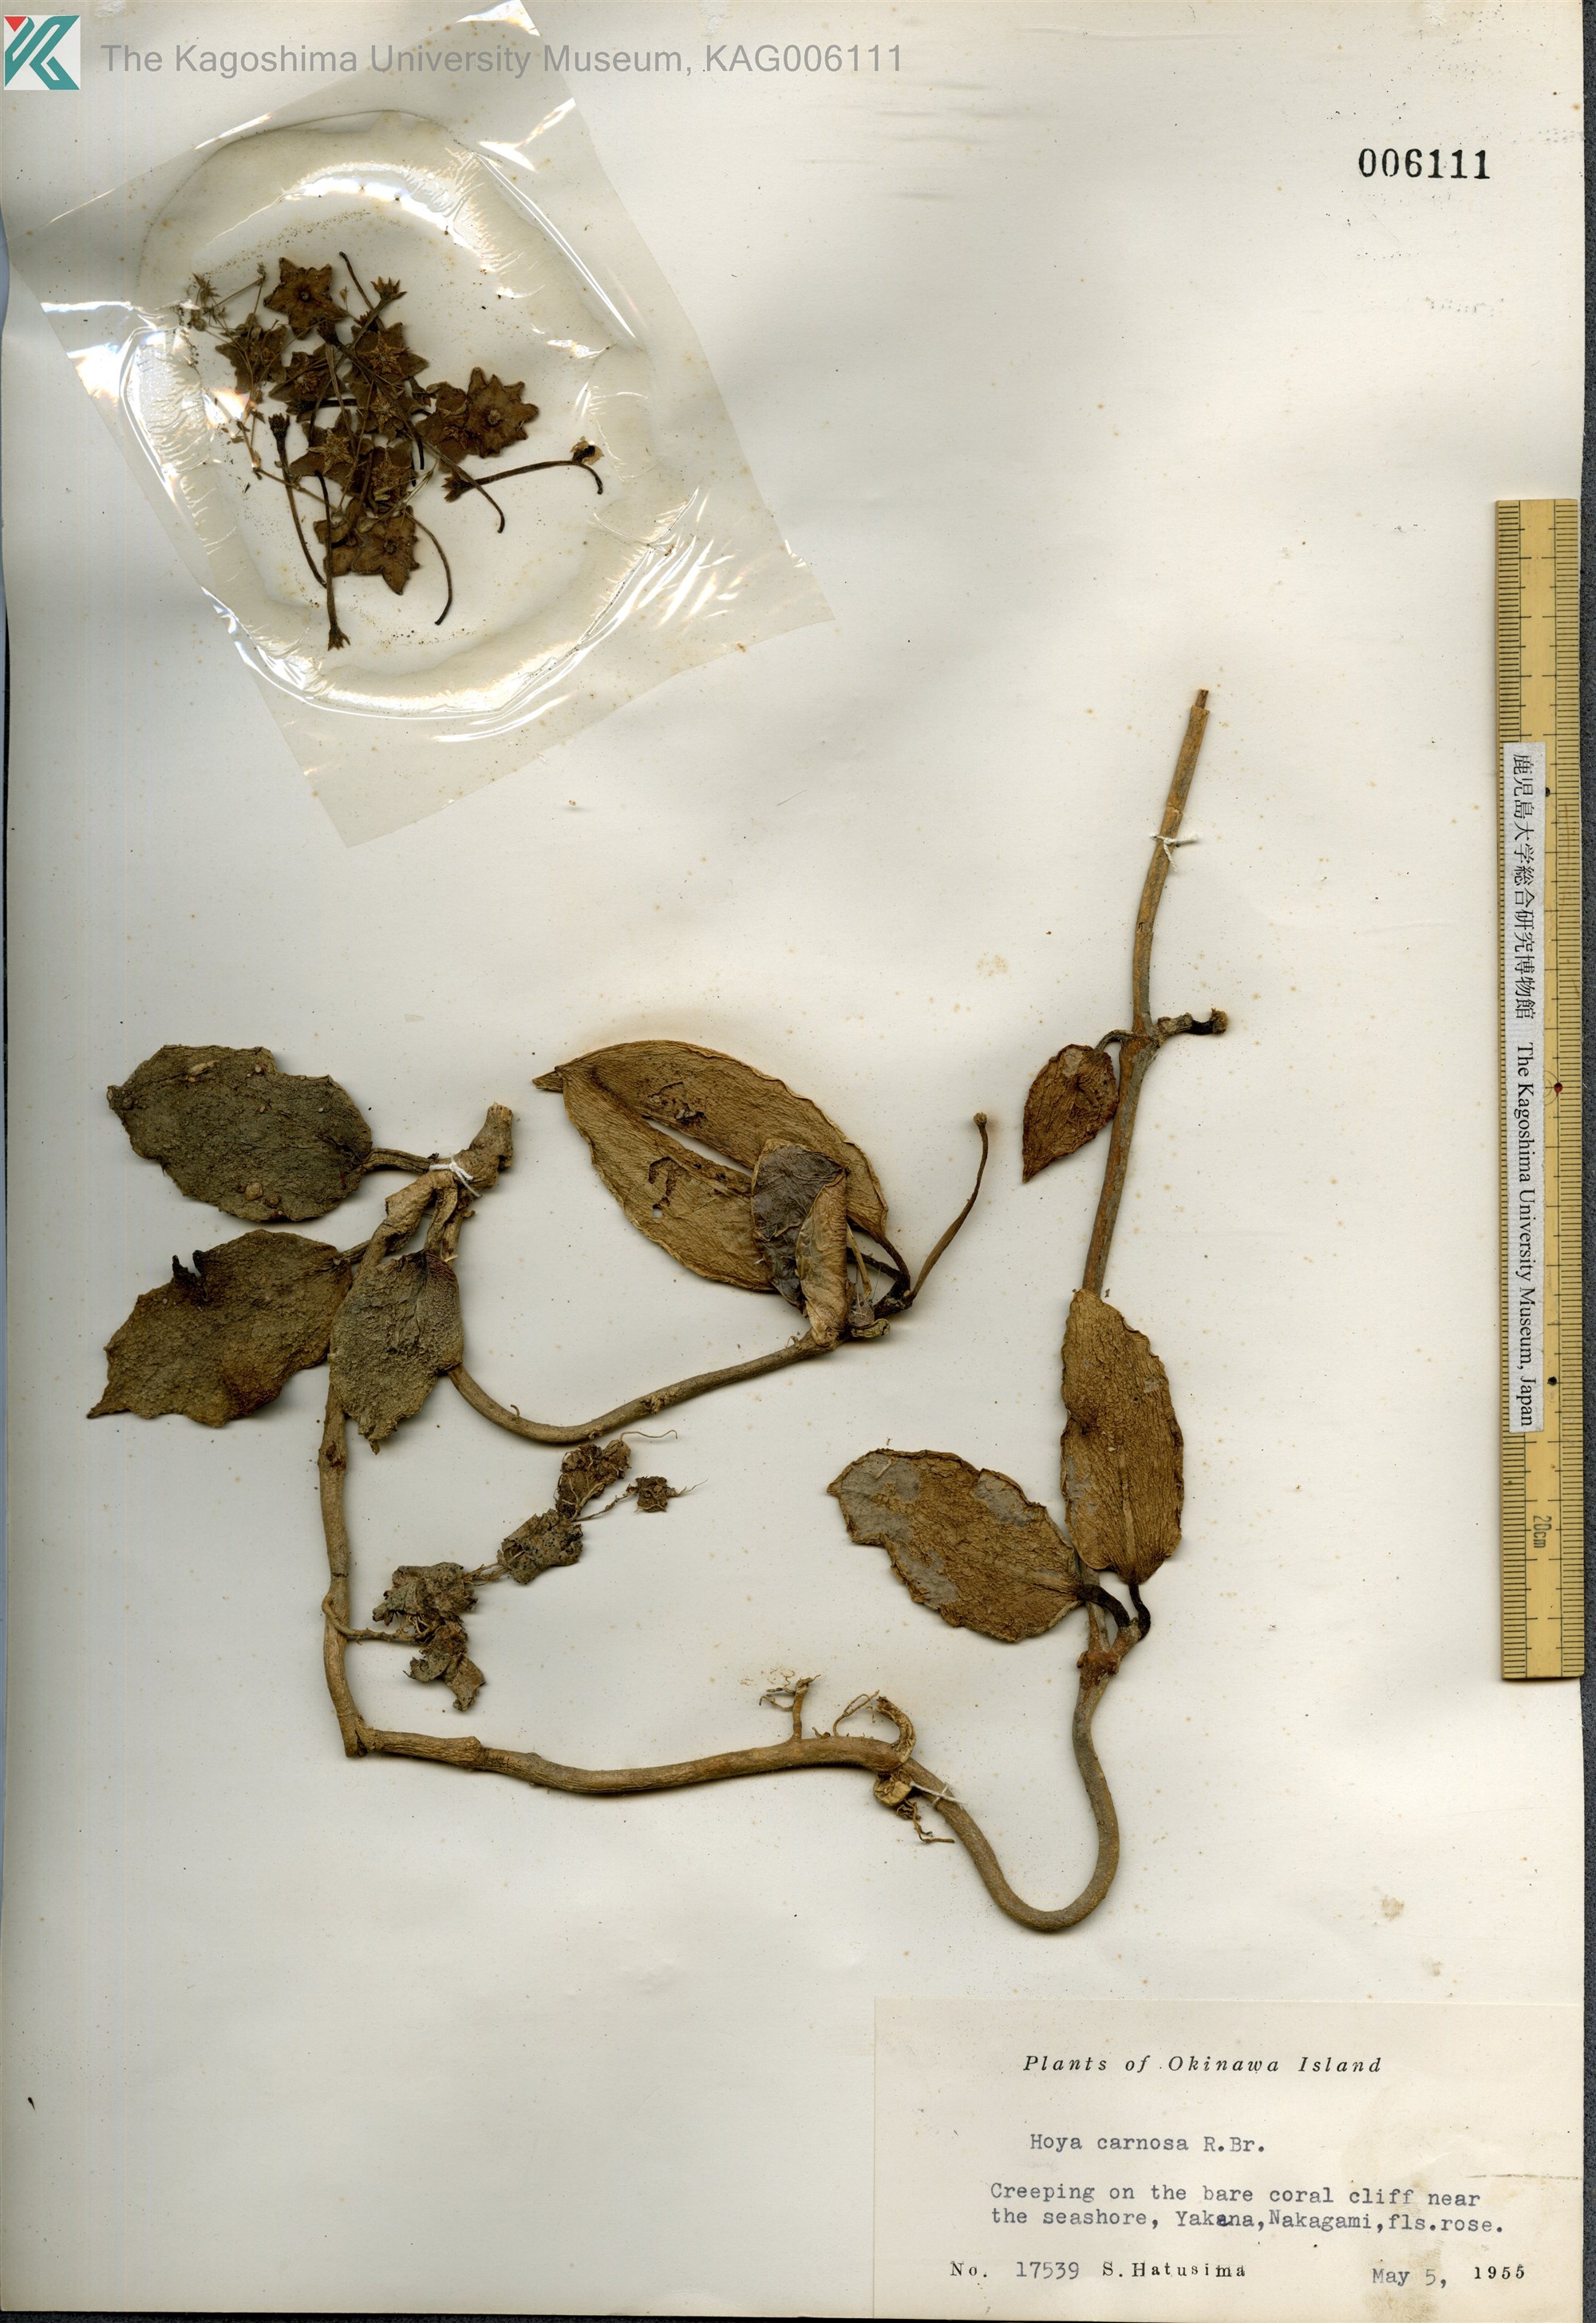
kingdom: Plantae
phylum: Tracheophyta
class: Magnoliopsida
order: Gentianales
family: Apocynaceae
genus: Hoya
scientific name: Hoya carnosa
